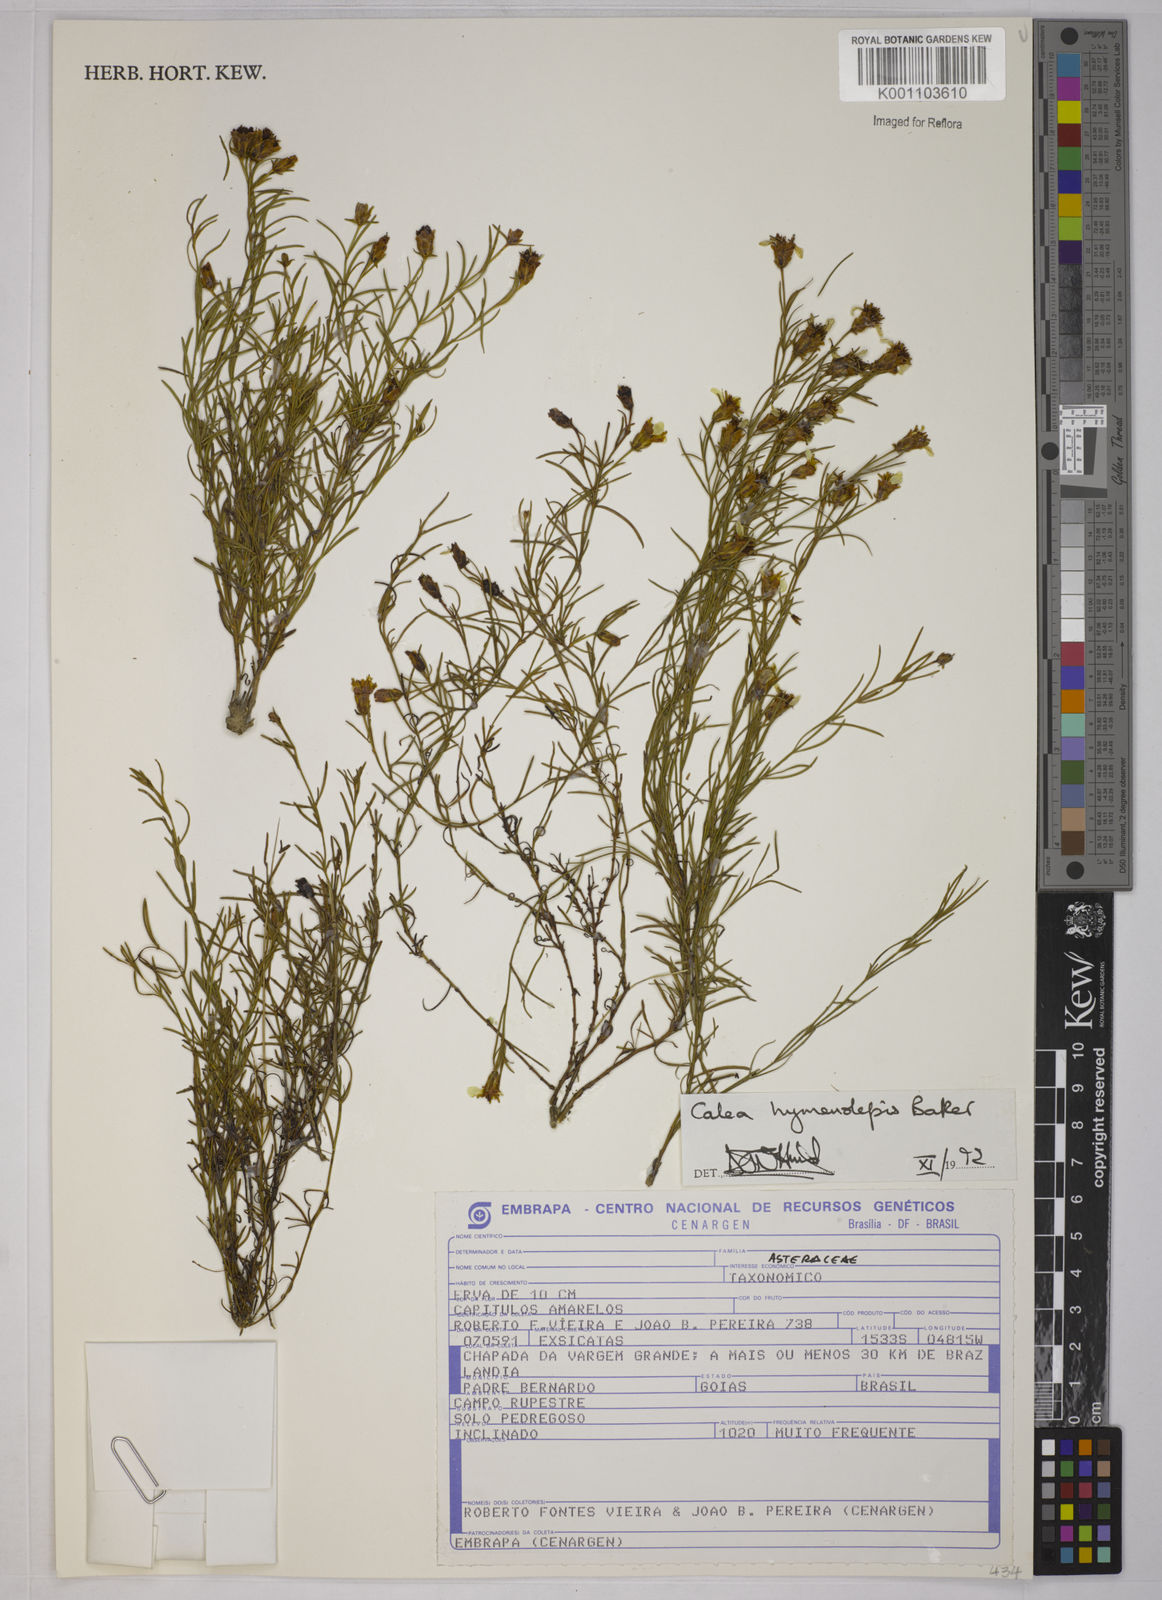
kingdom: Plantae
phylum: Tracheophyta
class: Magnoliopsida
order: Asterales
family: Asteraceae
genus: Calea
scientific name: Calea hymenolepis
